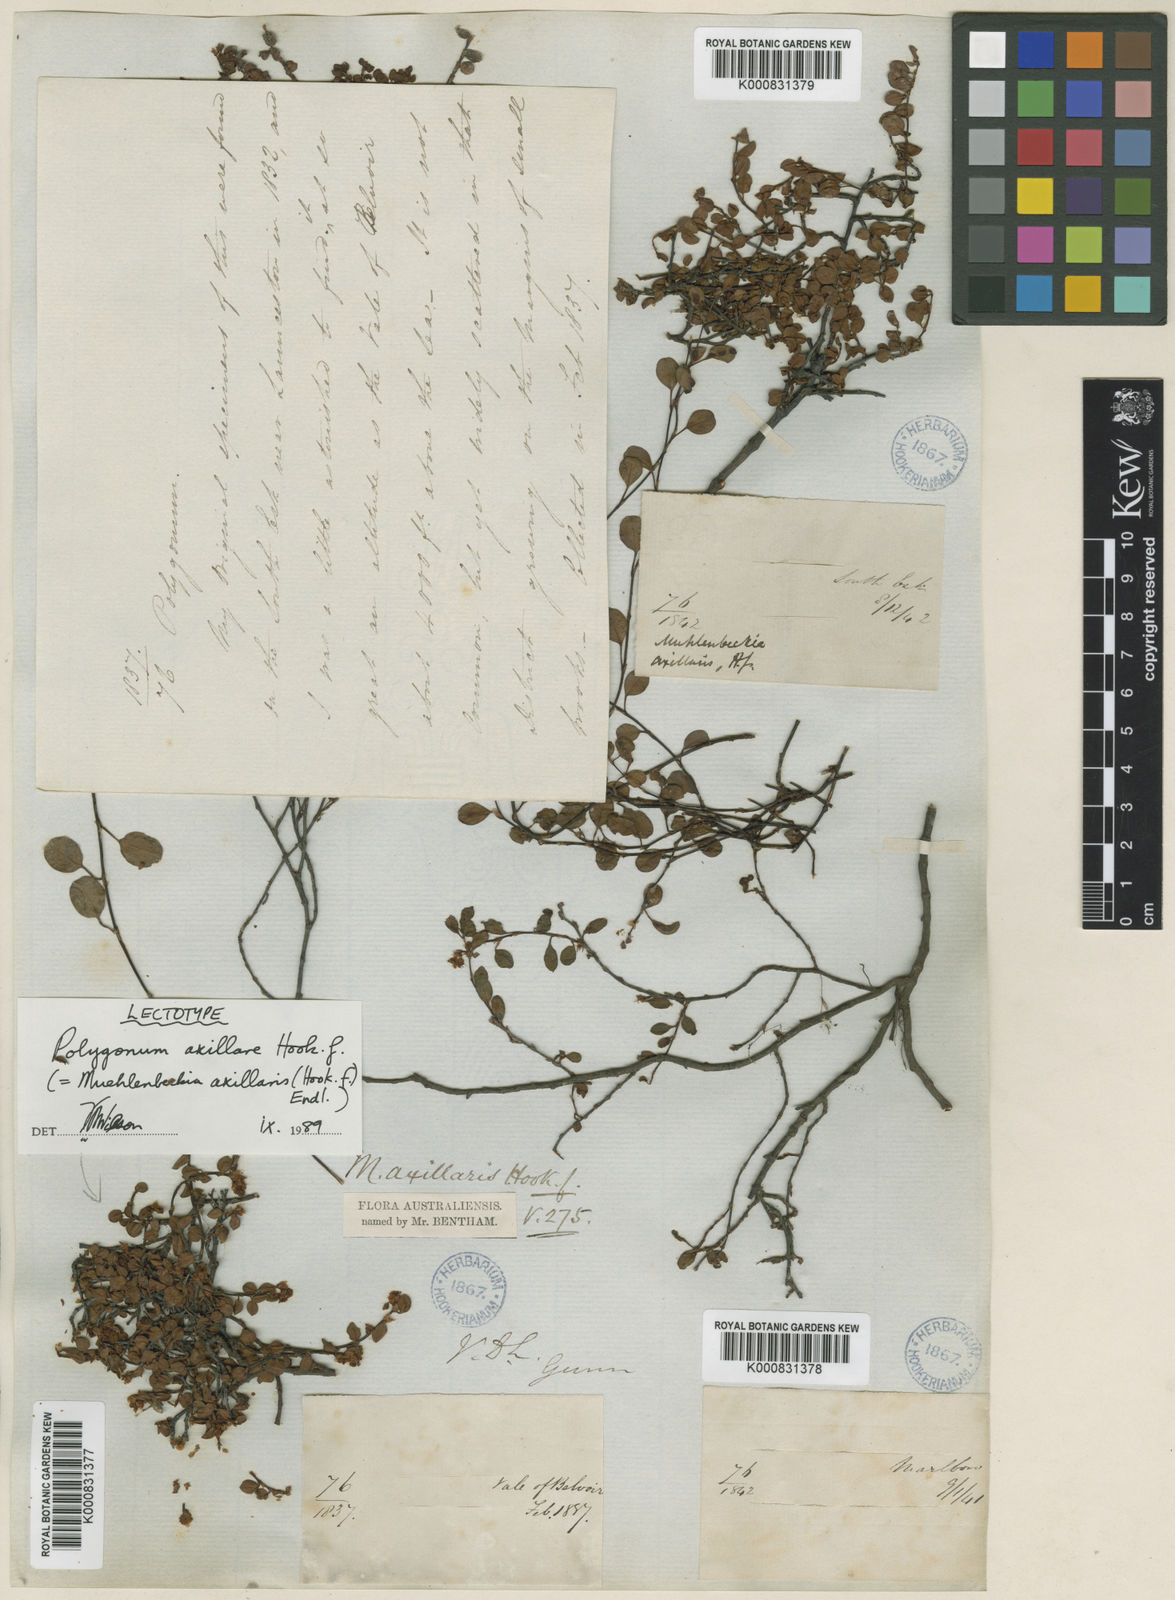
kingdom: Plantae
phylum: Tracheophyta
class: Magnoliopsida
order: Caryophyllales
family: Polygonaceae
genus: Muehlenbeckia
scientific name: Muehlenbeckia axillaris
